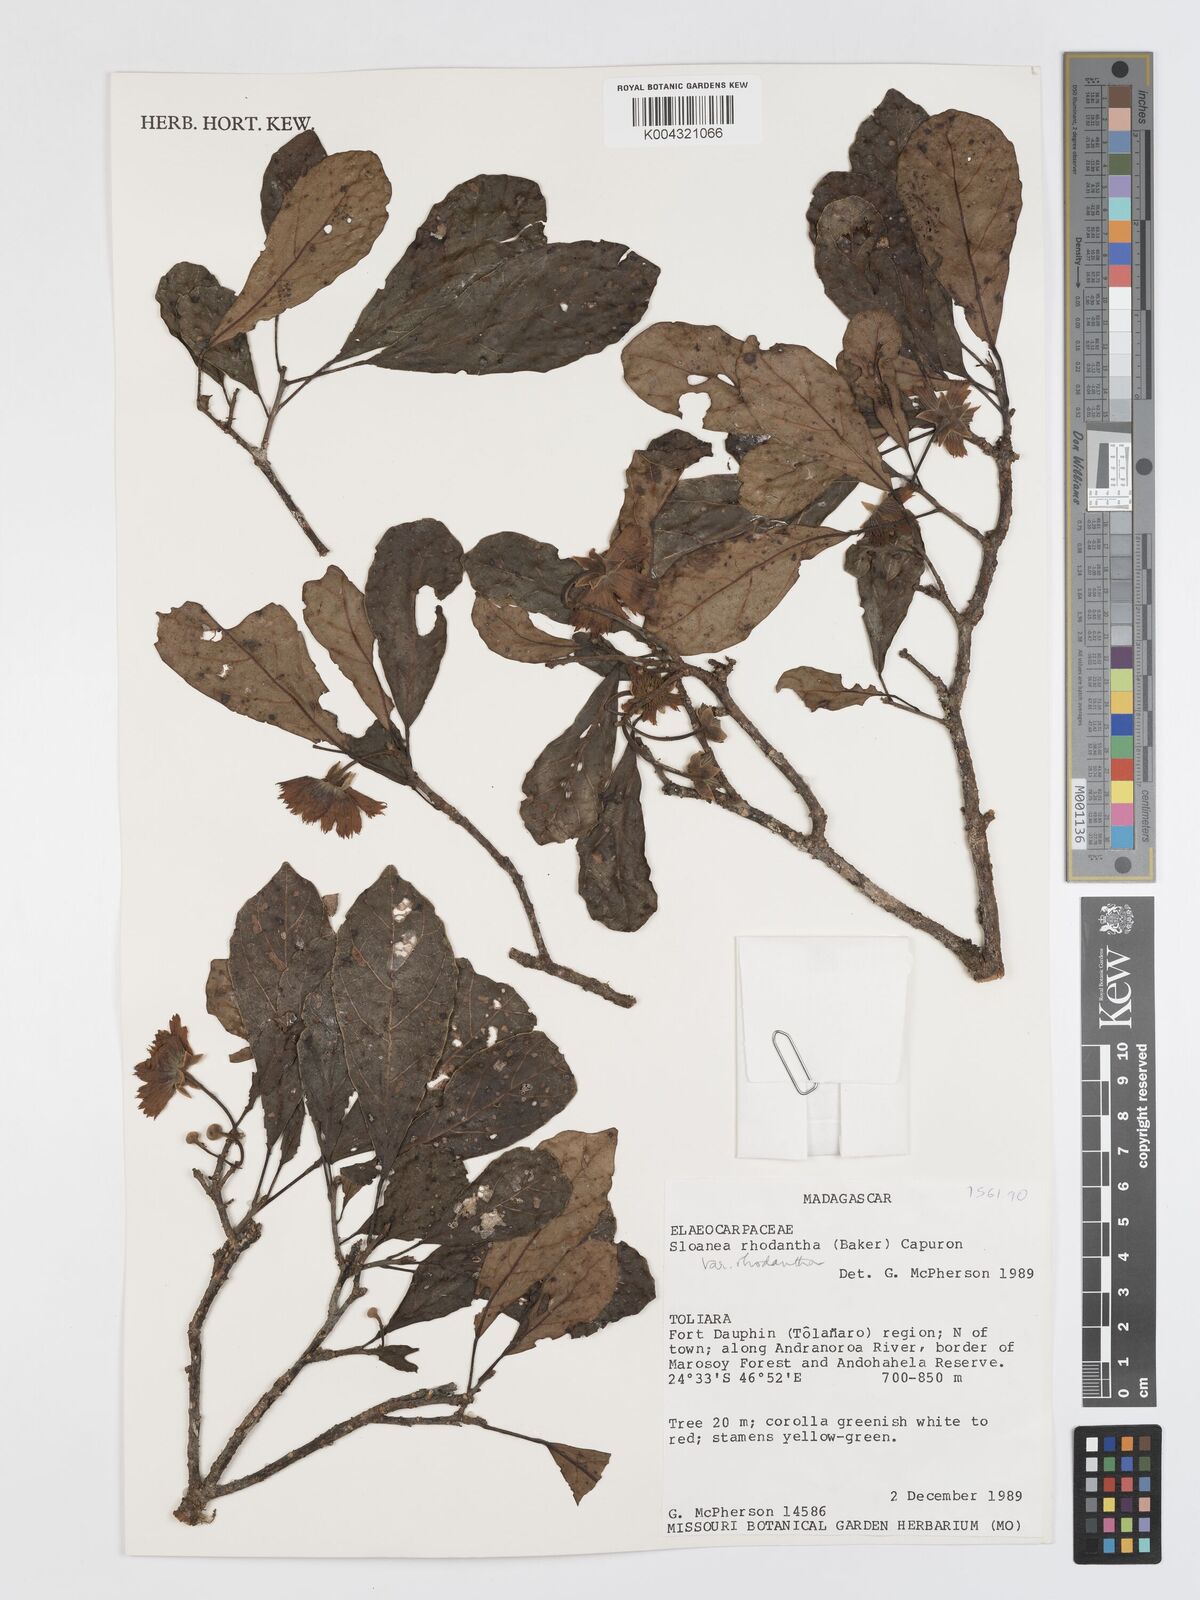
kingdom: Plantae
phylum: Tracheophyta
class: Magnoliopsida
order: Oxalidales
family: Elaeocarpaceae
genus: Sloanea
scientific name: Sloanea rhodantha
